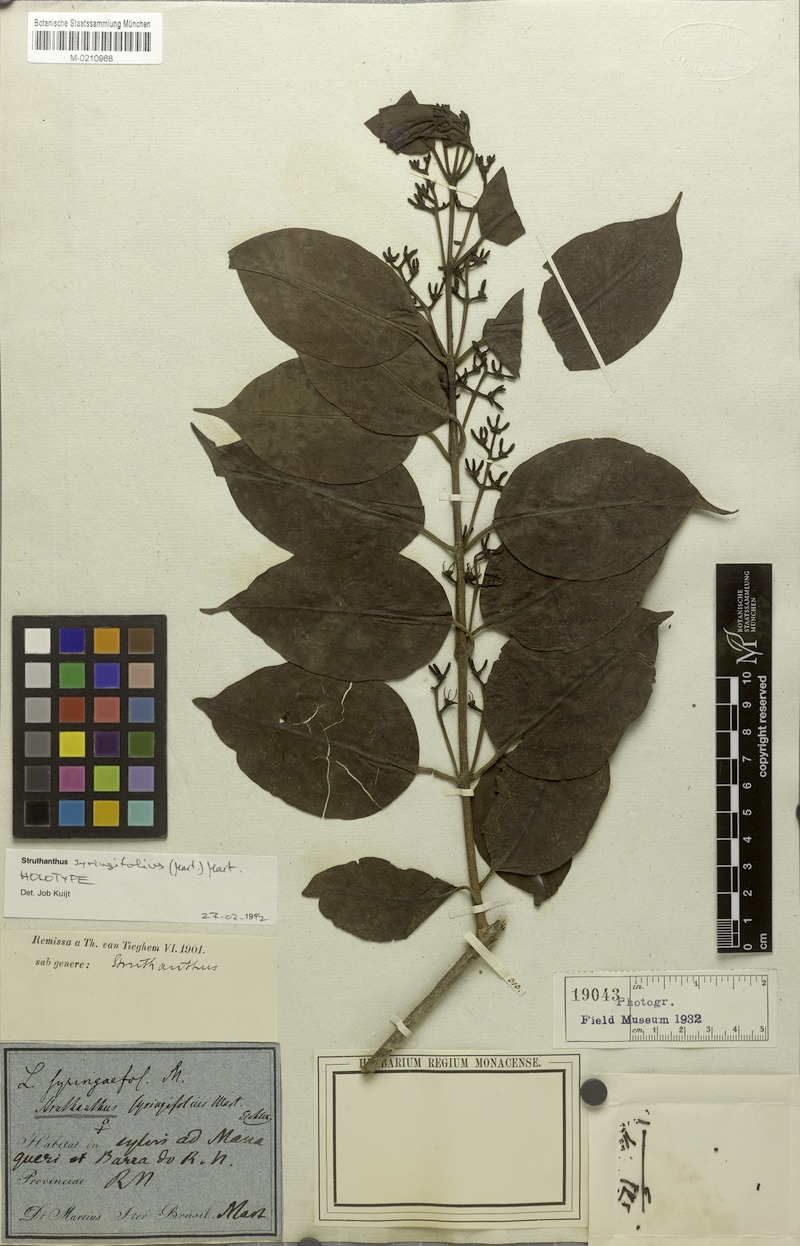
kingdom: Plantae
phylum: Tracheophyta
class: Magnoliopsida
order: Santalales
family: Loranthaceae
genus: Struthanthus
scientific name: Struthanthus syringifolius
